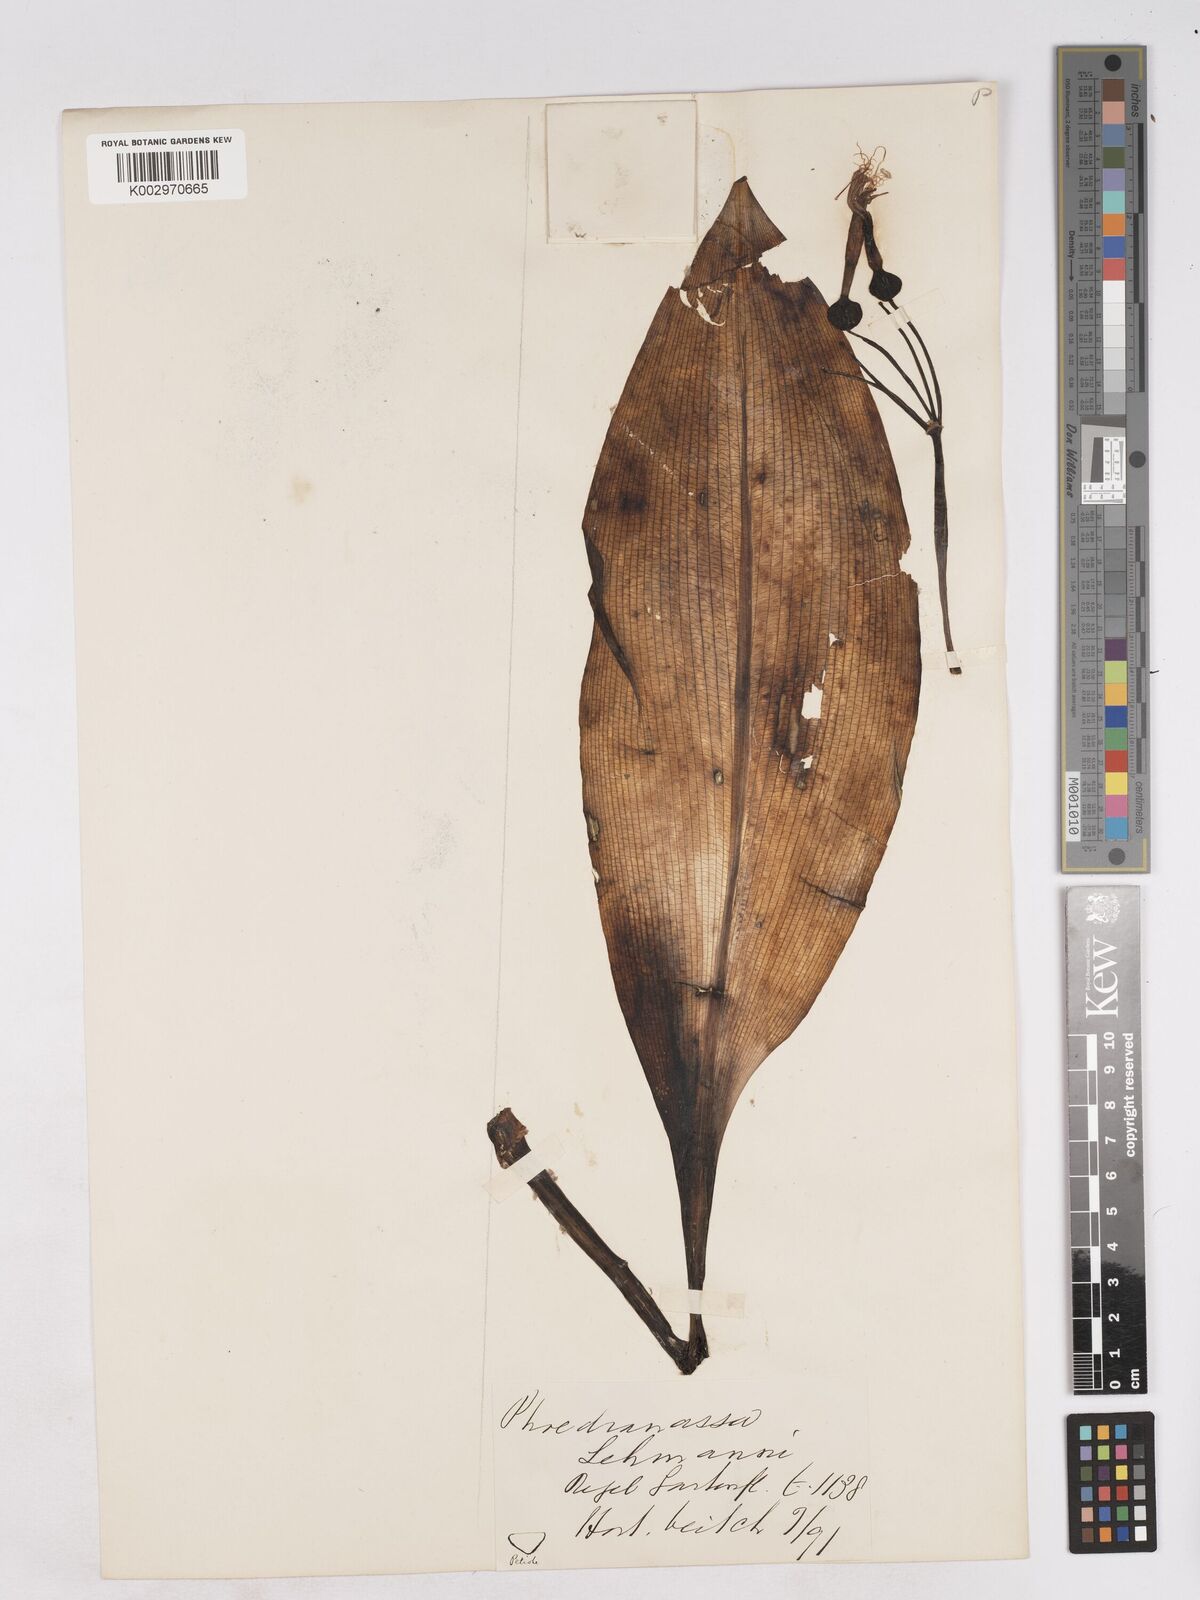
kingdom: Plantae
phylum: Tracheophyta
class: Liliopsida
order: Asparagales
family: Amaryllidaceae
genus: Phaedranassa
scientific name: Phaedranassa lehmannii
